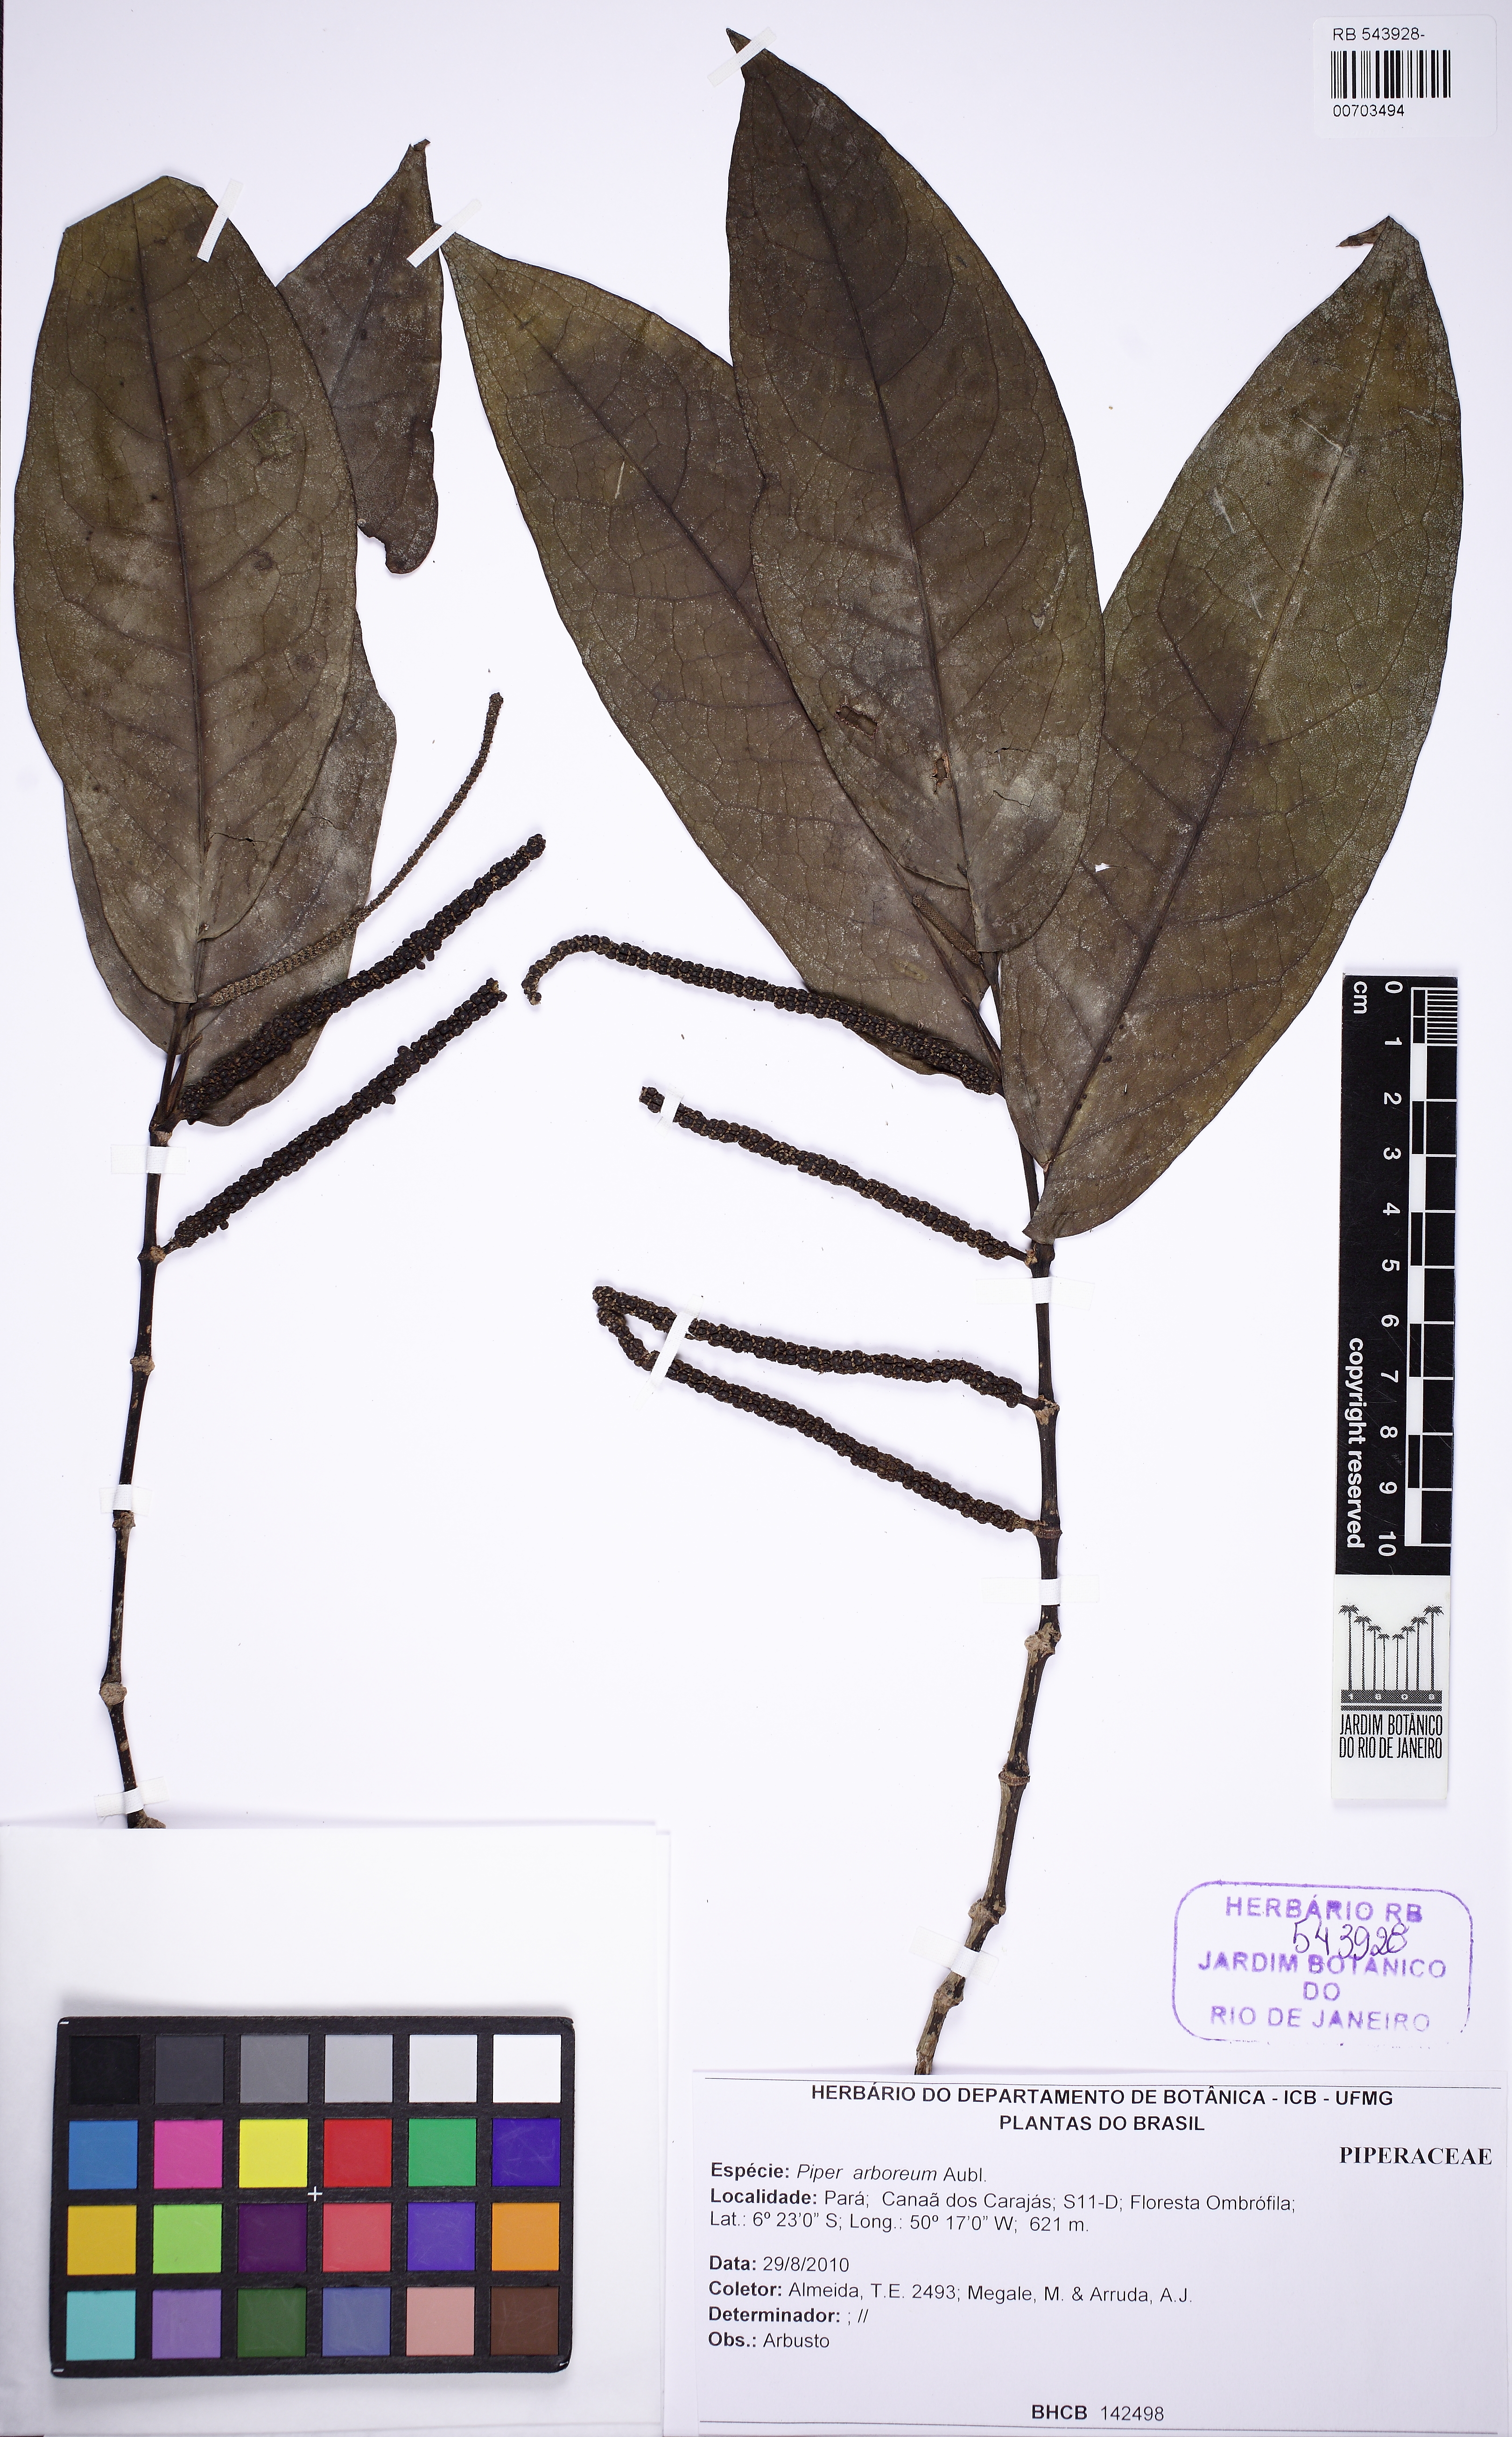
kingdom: Plantae
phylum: Tracheophyta
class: Magnoliopsida
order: Piperales
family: Piperaceae
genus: Piper
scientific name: Piper arboreum
